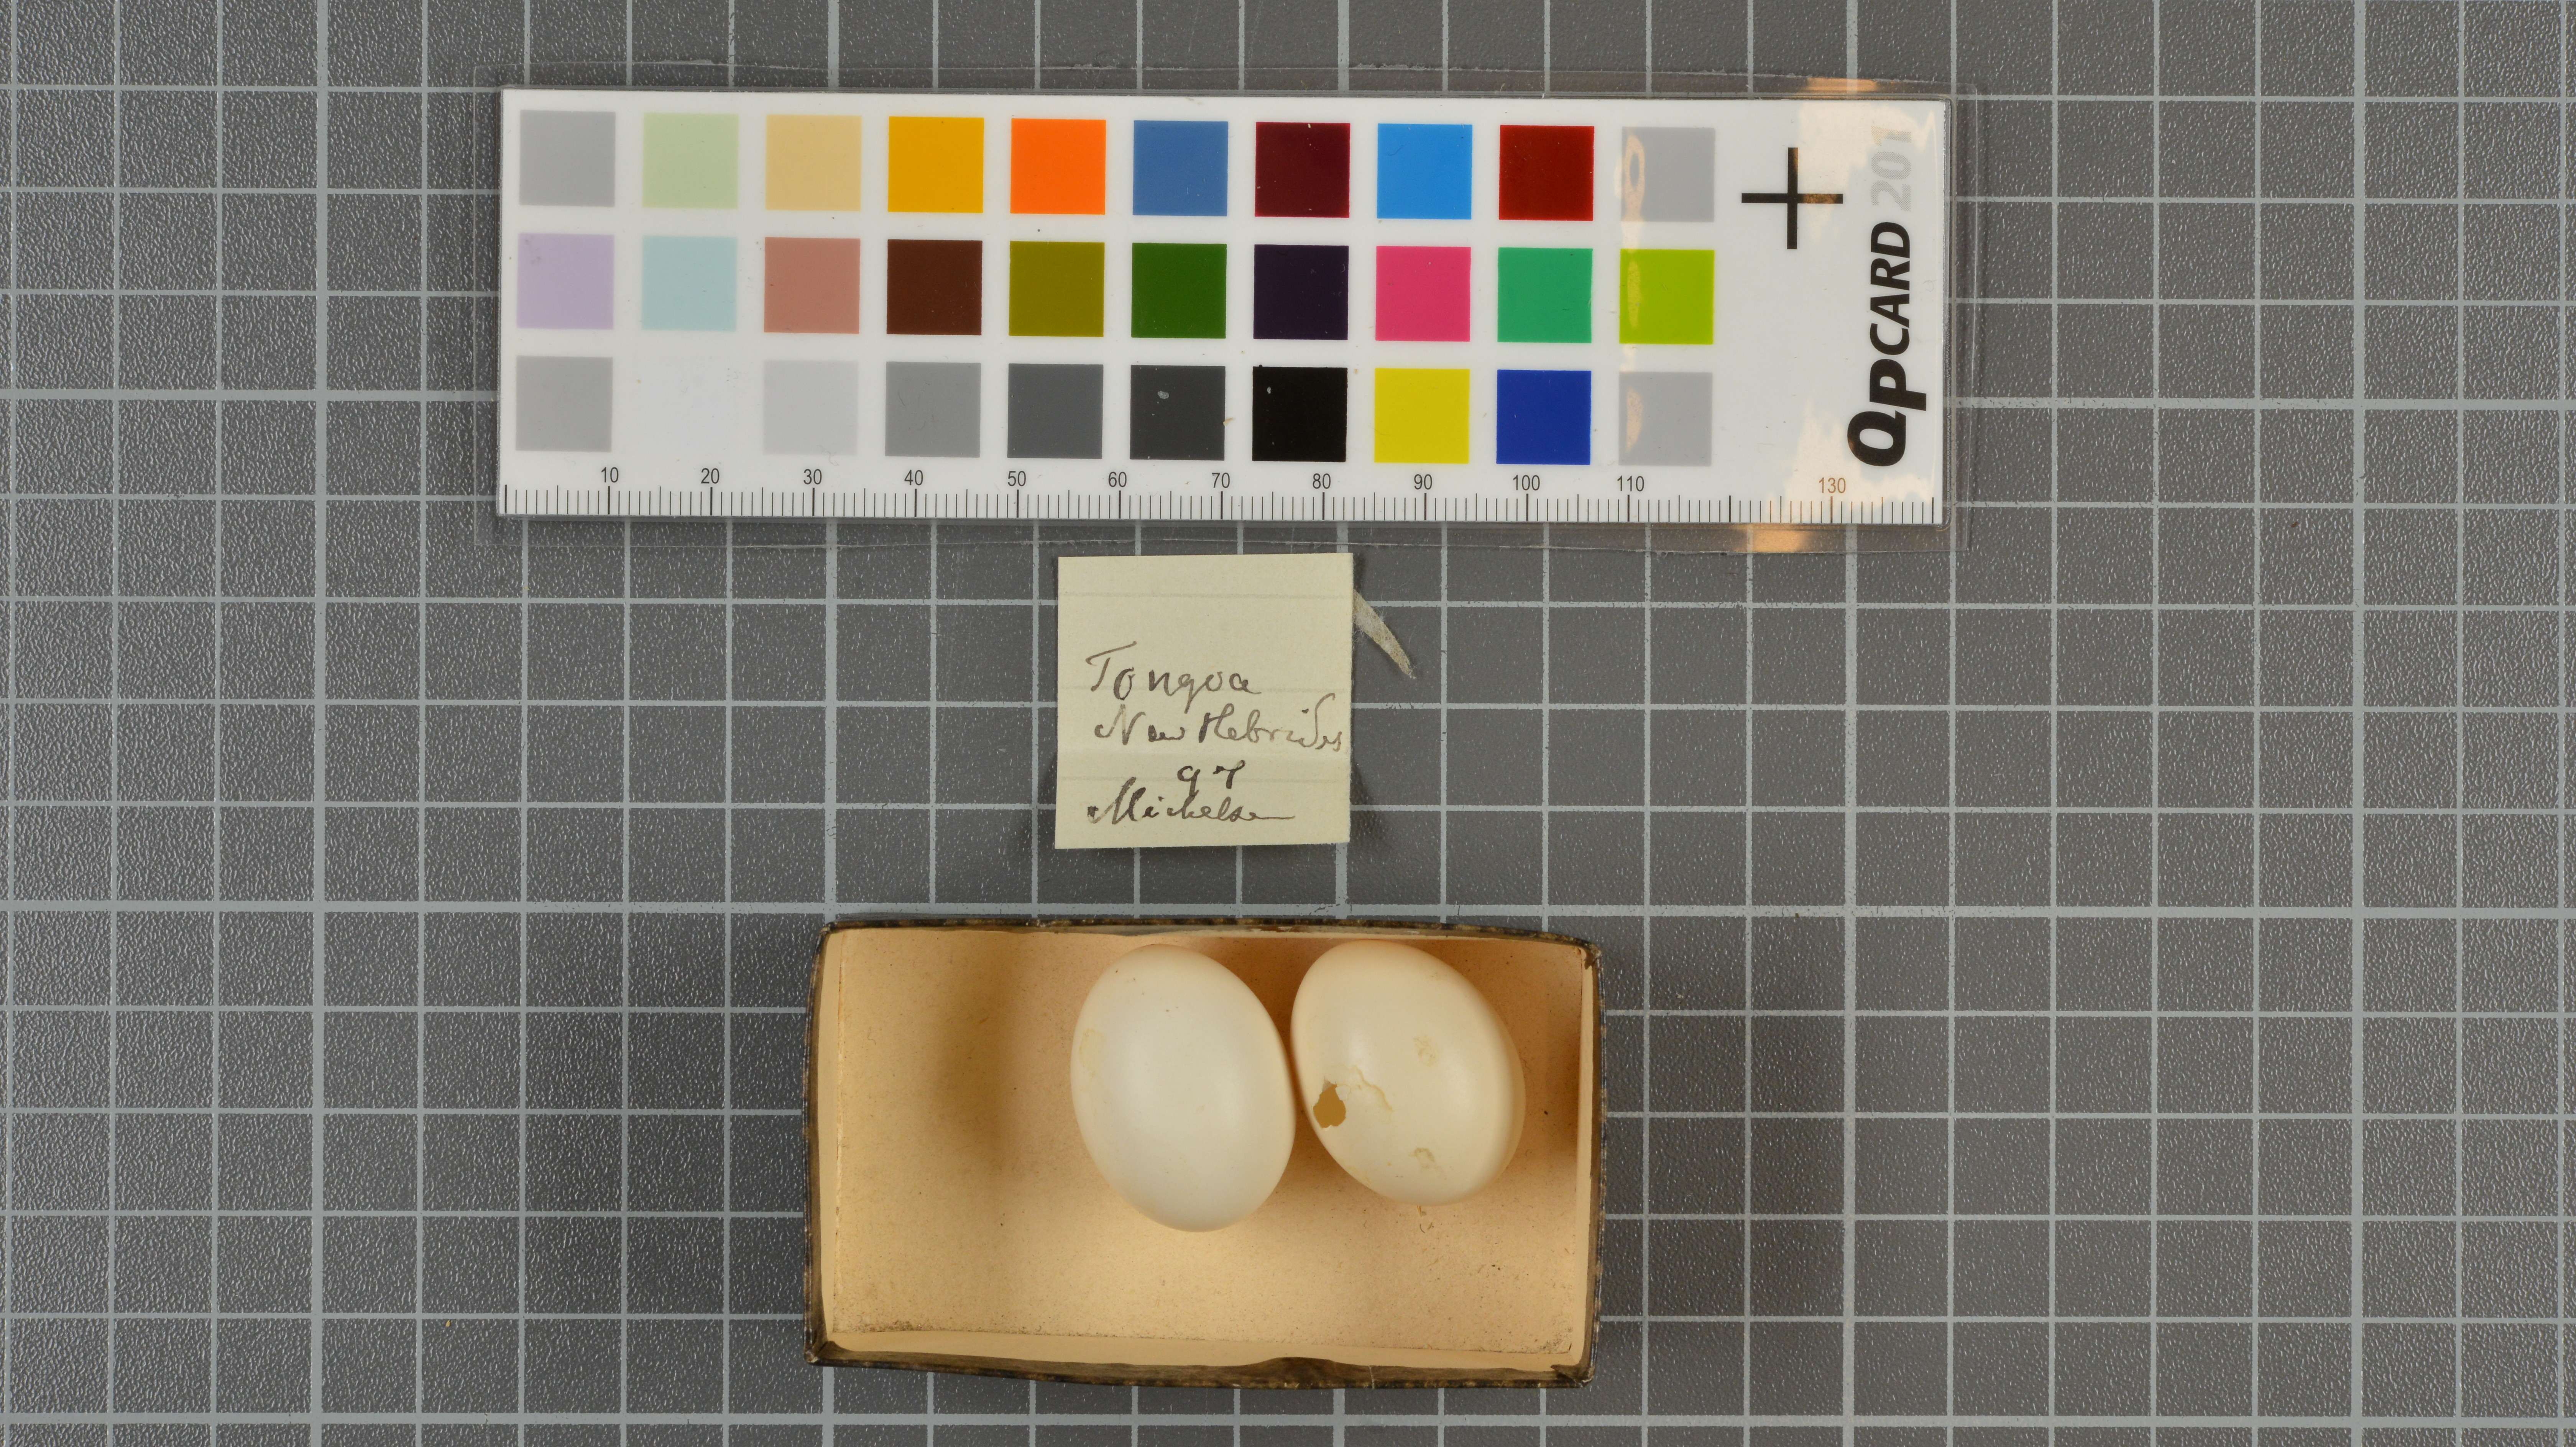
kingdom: Animalia
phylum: Chordata
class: Aves
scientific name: Aves
